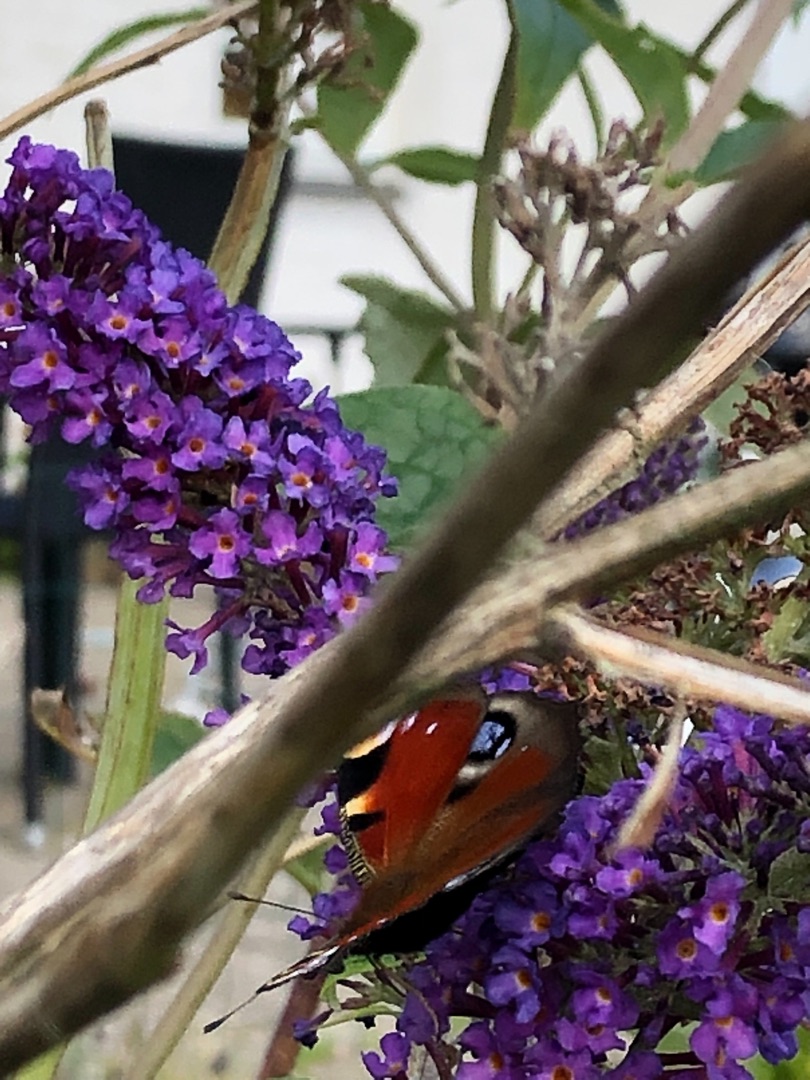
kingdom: Animalia
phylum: Arthropoda
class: Insecta
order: Lepidoptera
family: Nymphalidae
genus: Aglais
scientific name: Aglais io
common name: Dagpåfugleøje
